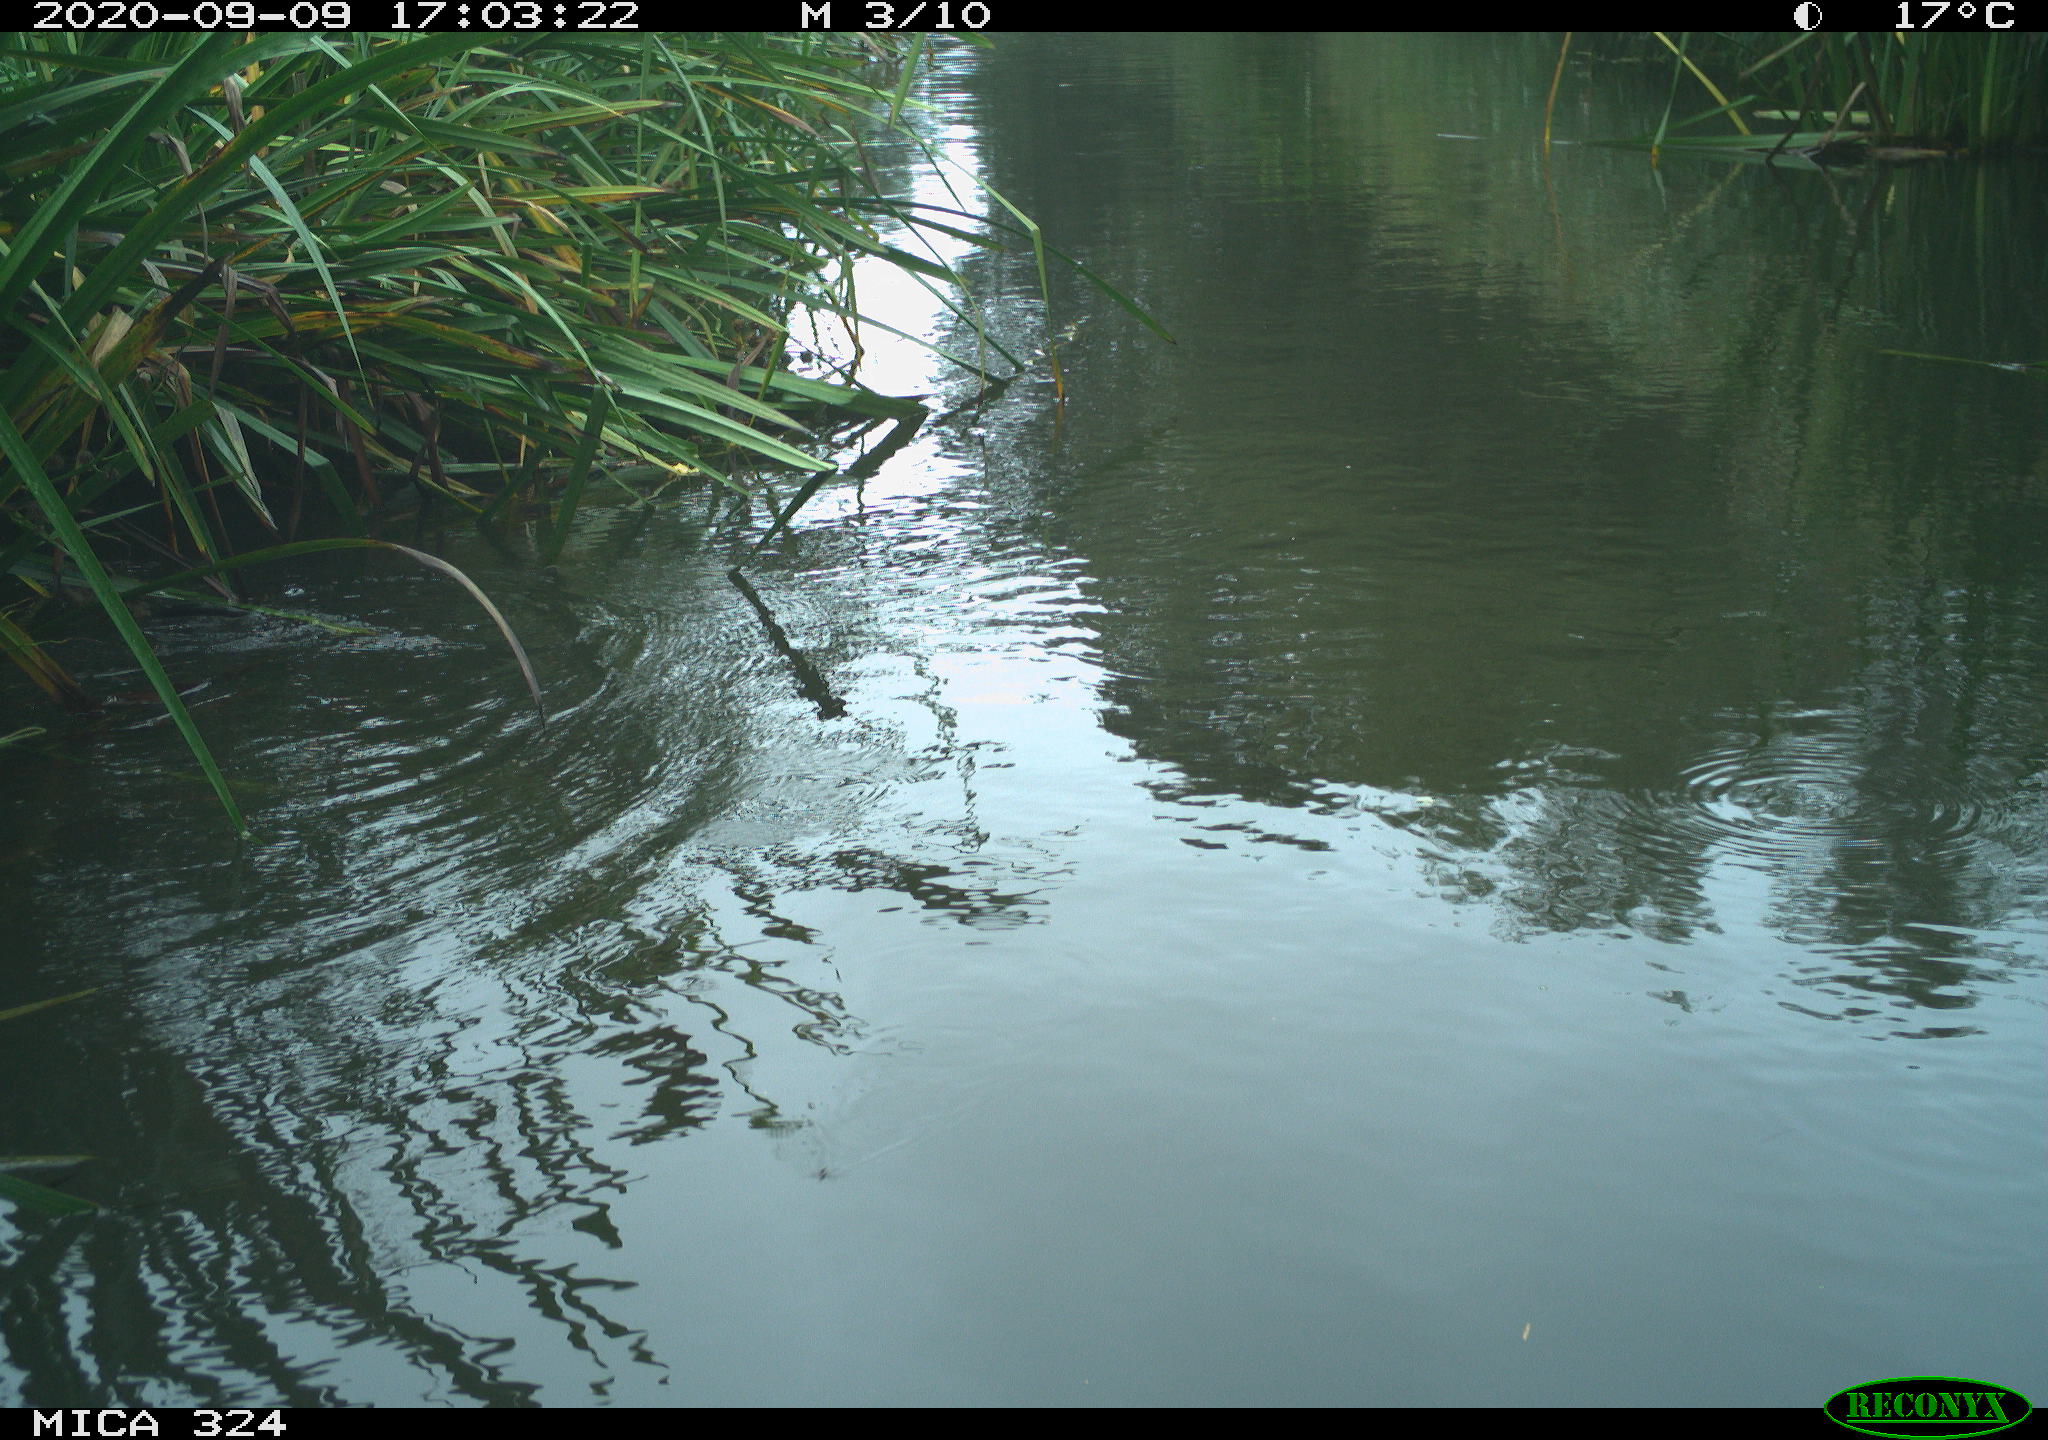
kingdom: Animalia
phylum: Chordata
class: Mammalia
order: Rodentia
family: Cricetidae
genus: Ondatra
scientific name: Ondatra zibethicus
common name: Muskrat
